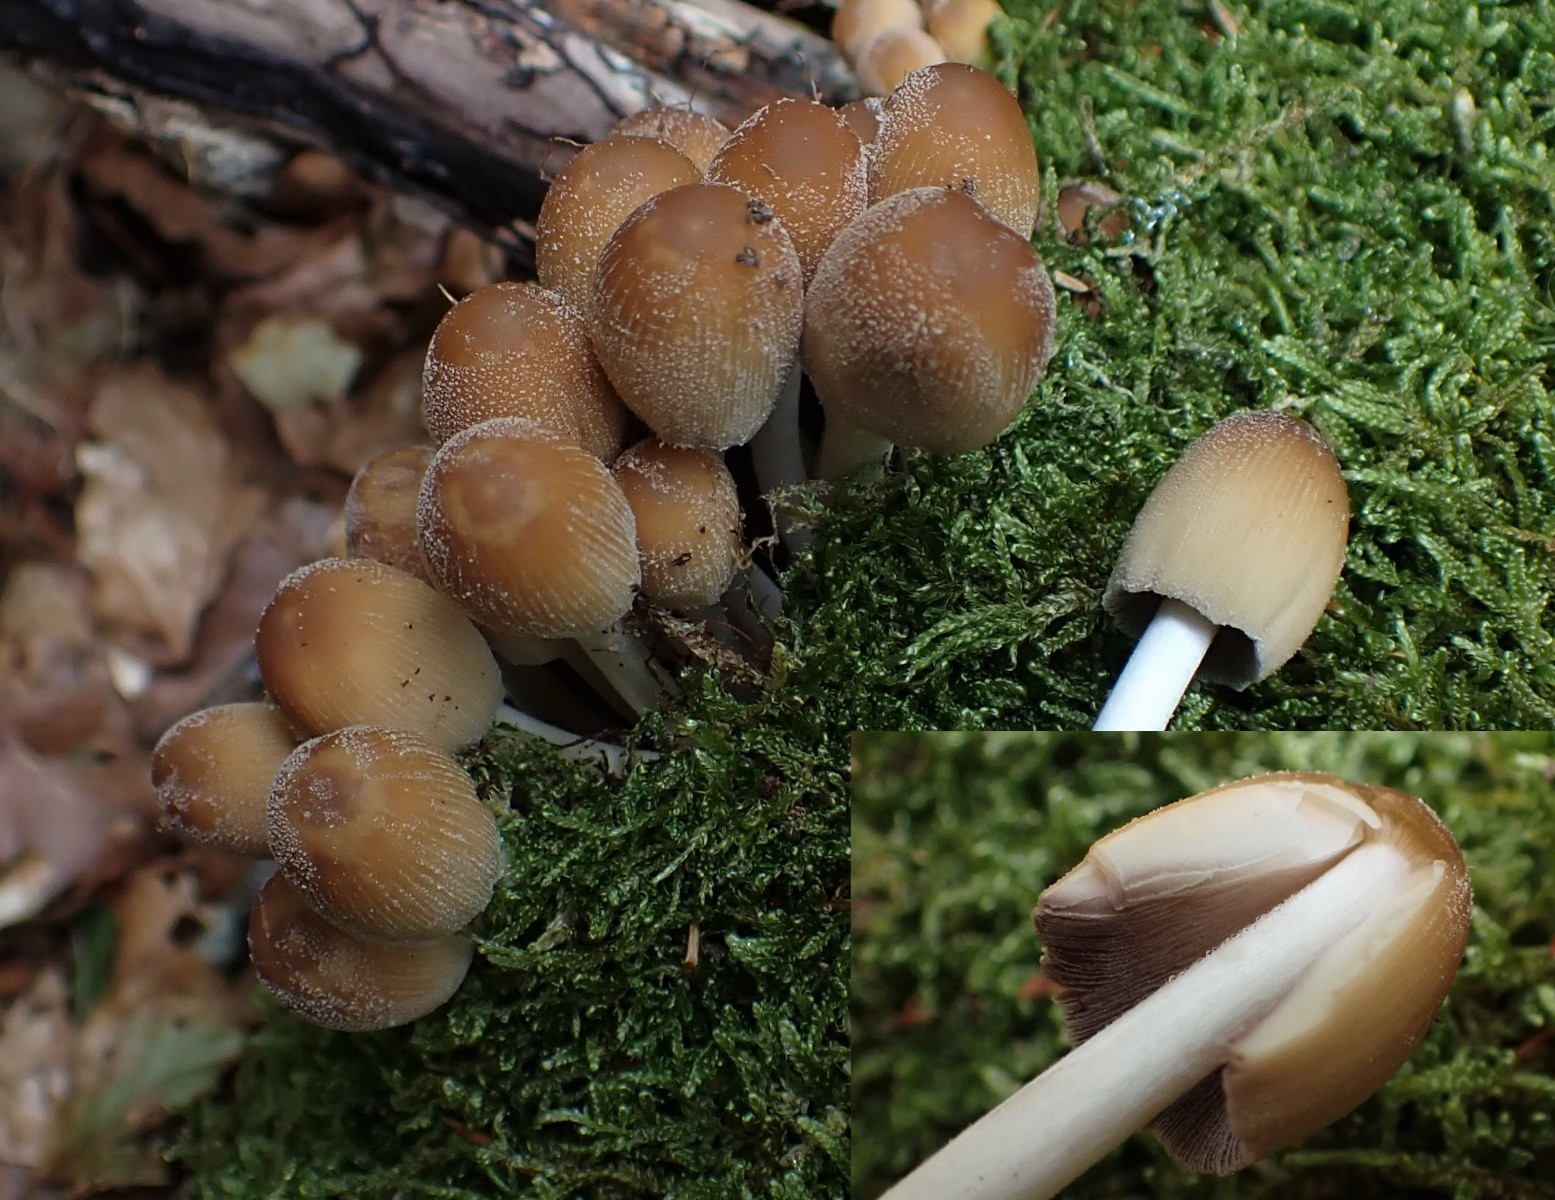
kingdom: Fungi
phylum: Basidiomycota
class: Agaricomycetes
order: Agaricales
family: Psathyrellaceae
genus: Coprinellus
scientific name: Coprinellus micaceus
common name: glimmer-blækhat
